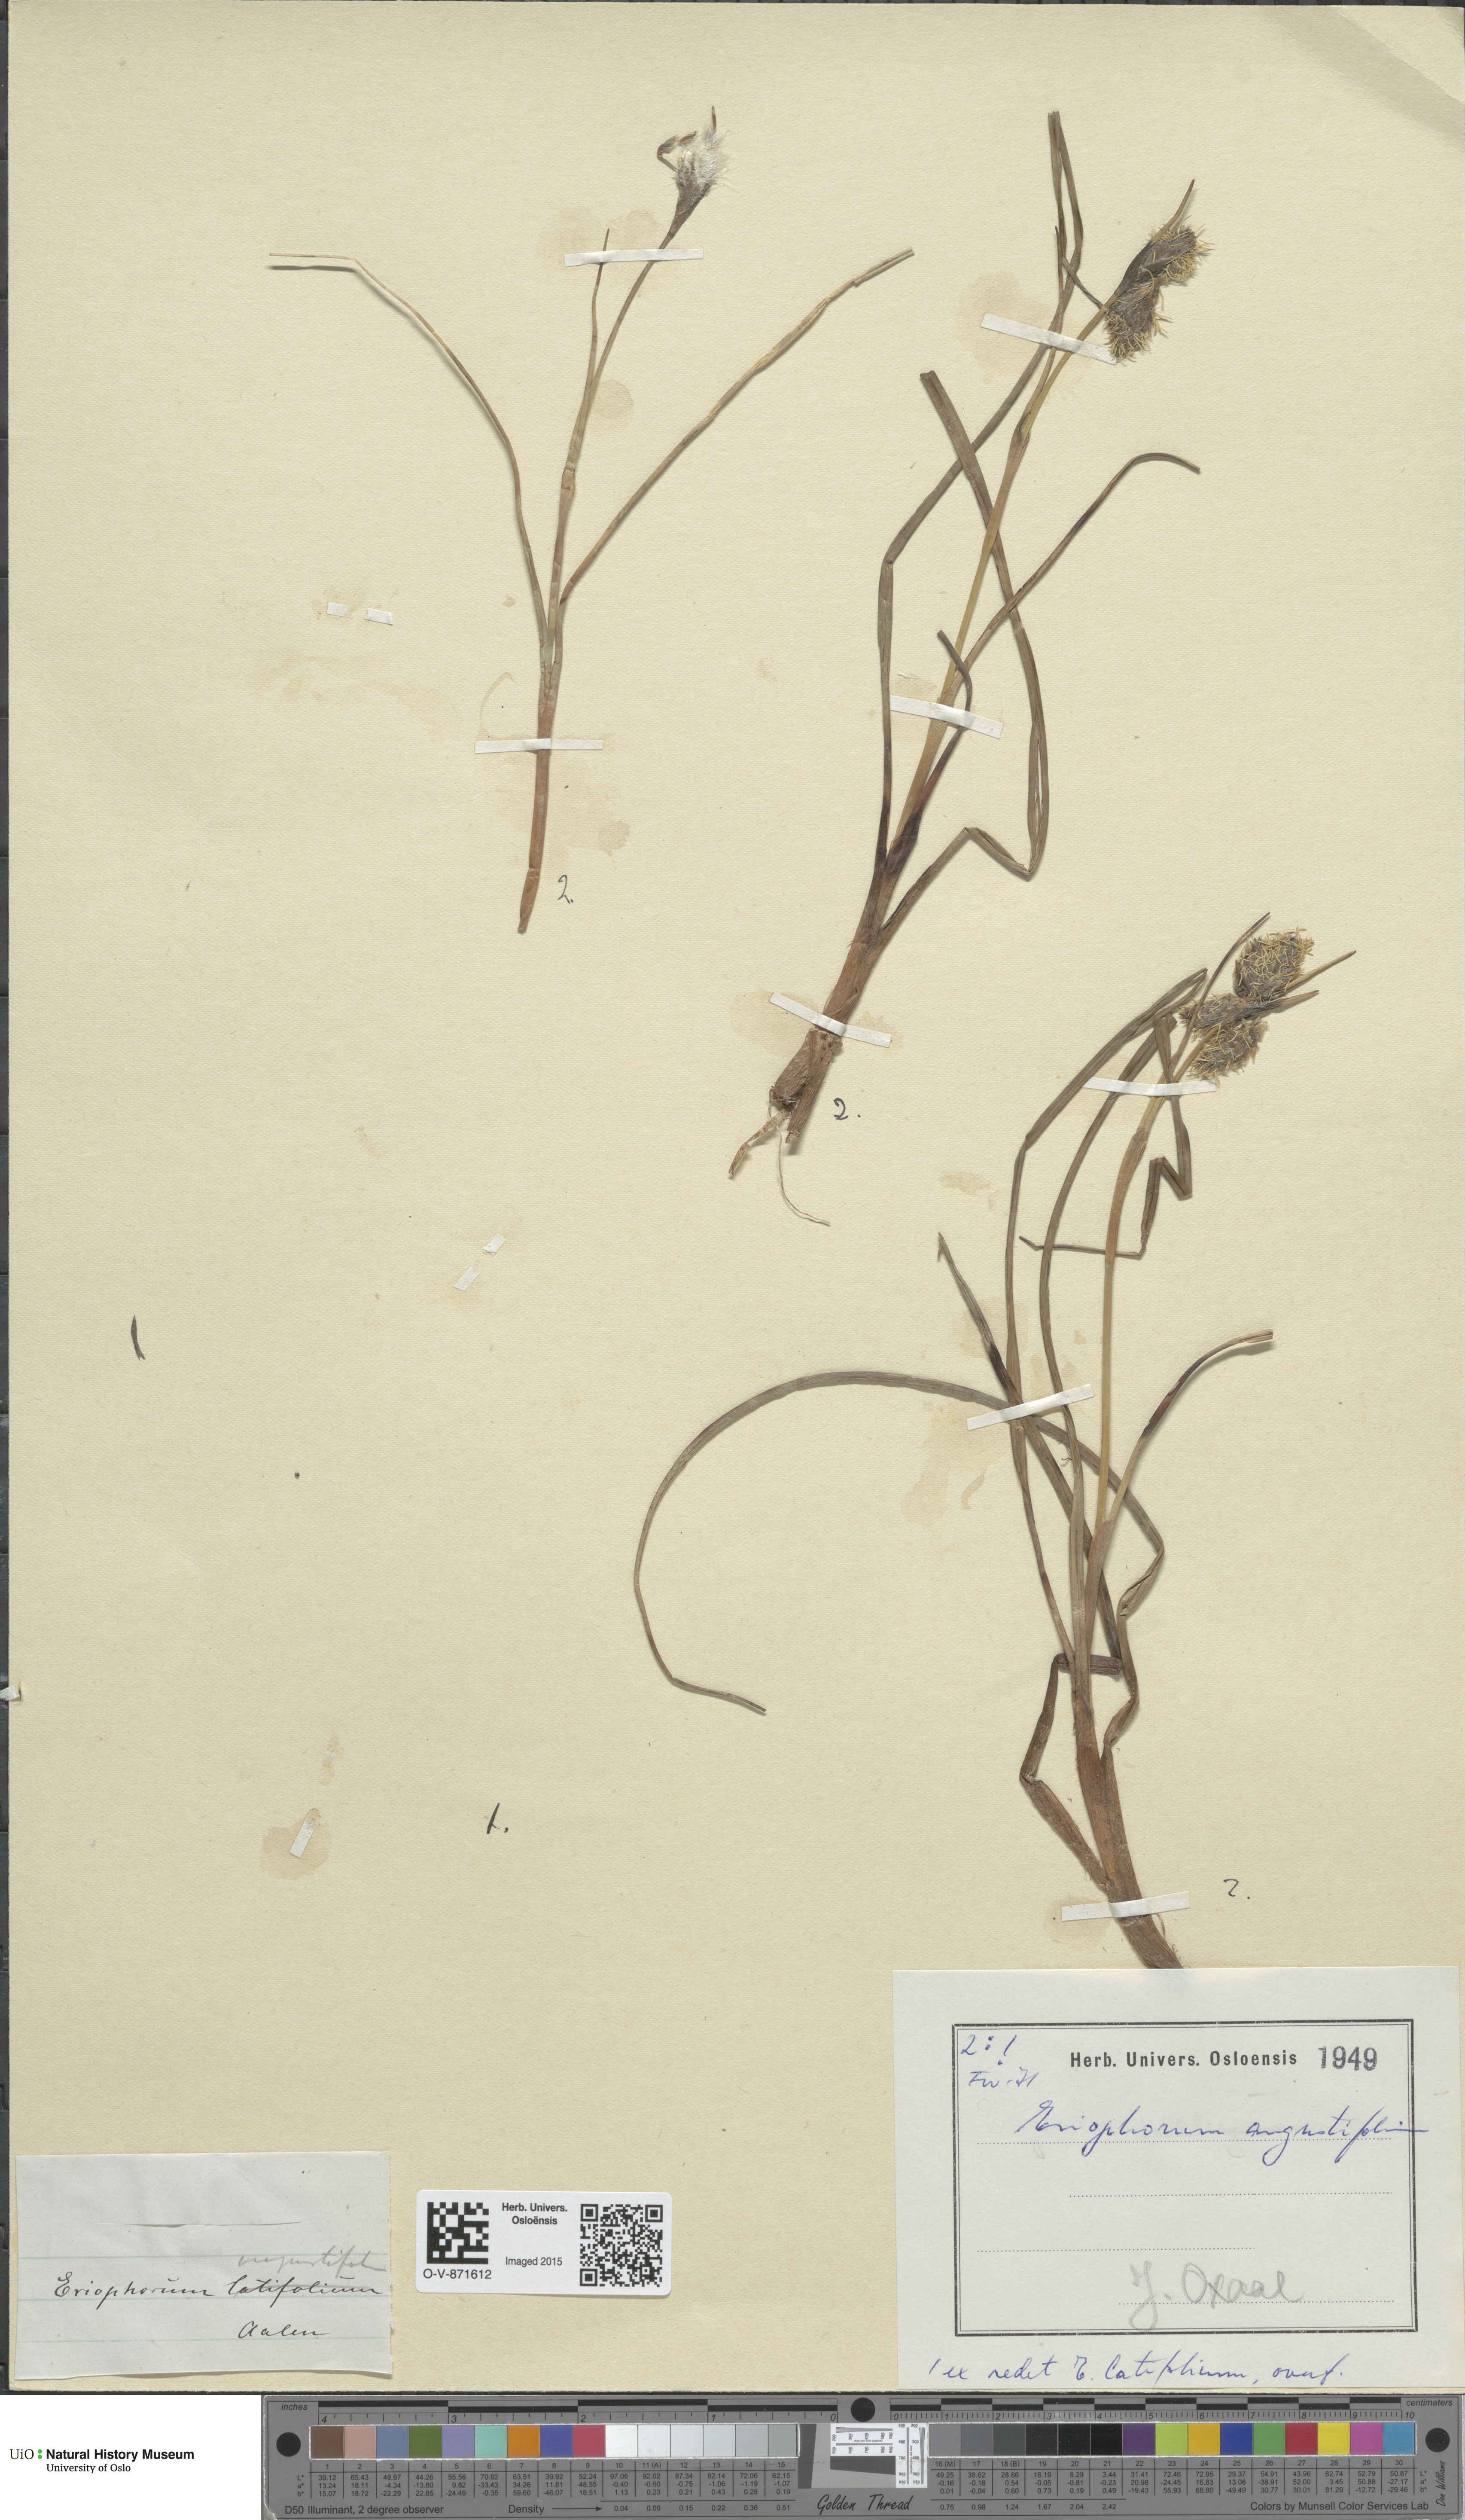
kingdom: Plantae
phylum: Tracheophyta
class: Liliopsida
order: Poales
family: Cyperaceae
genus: Eriophorum
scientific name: Eriophorum angustifolium
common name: Common cottongrass
